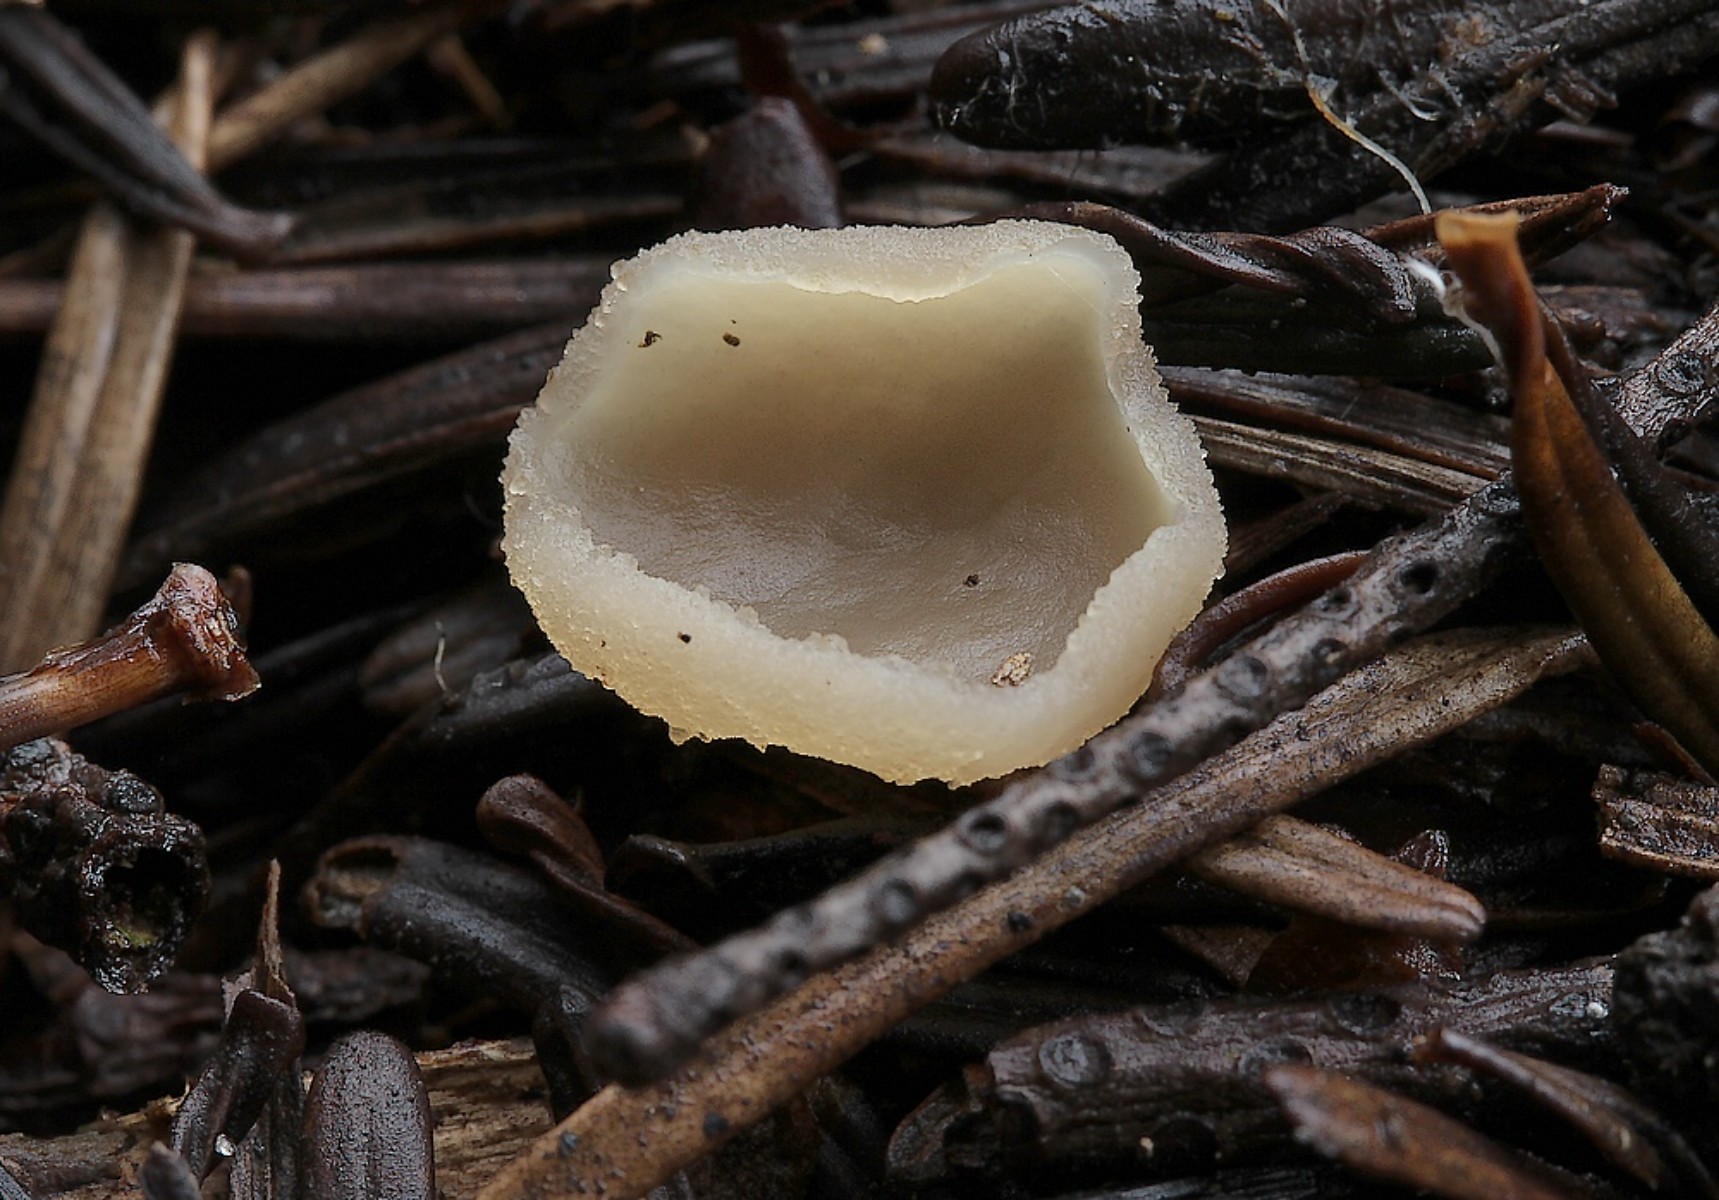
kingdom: Fungi
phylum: Ascomycota
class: Pezizomycetes
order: Pezizales
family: Pezizaceae
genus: Peziza
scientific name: Peziza
